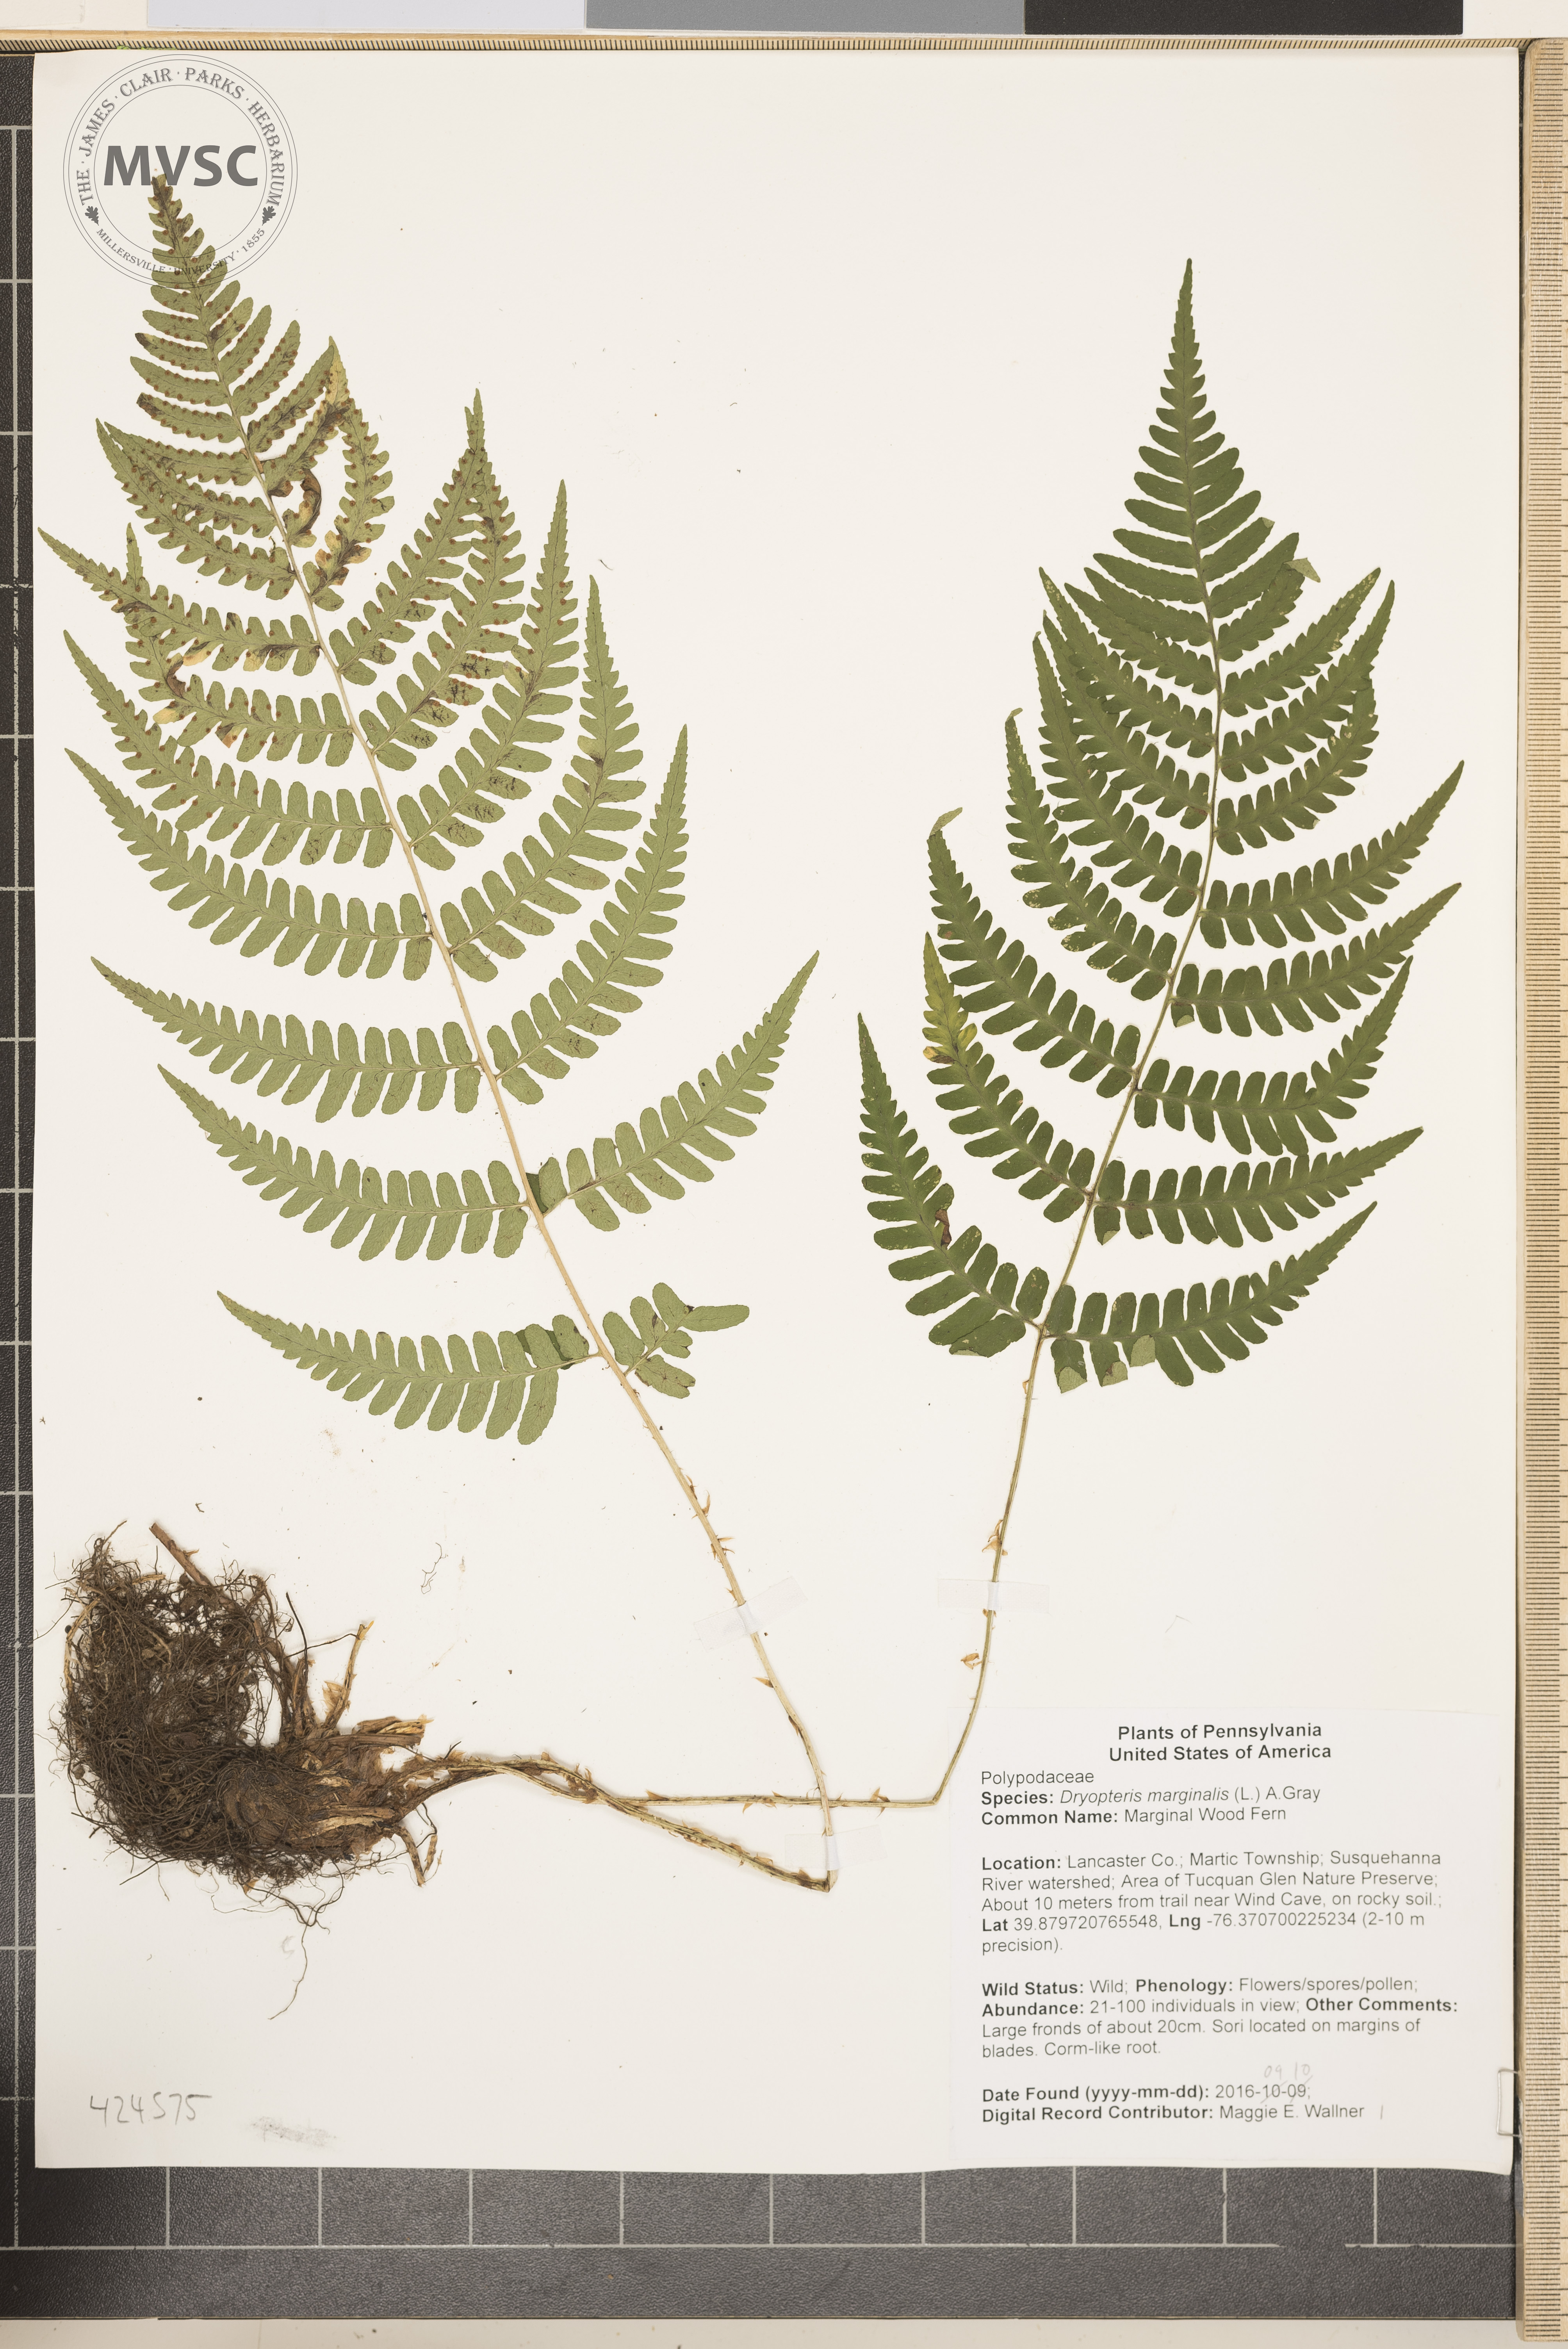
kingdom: Plantae
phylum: Tracheophyta
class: Polypodiopsida
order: Polypodiales
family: Dryopteridaceae
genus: Dryopteris
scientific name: Dryopteris marginalis
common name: Marginal Wood Fern
